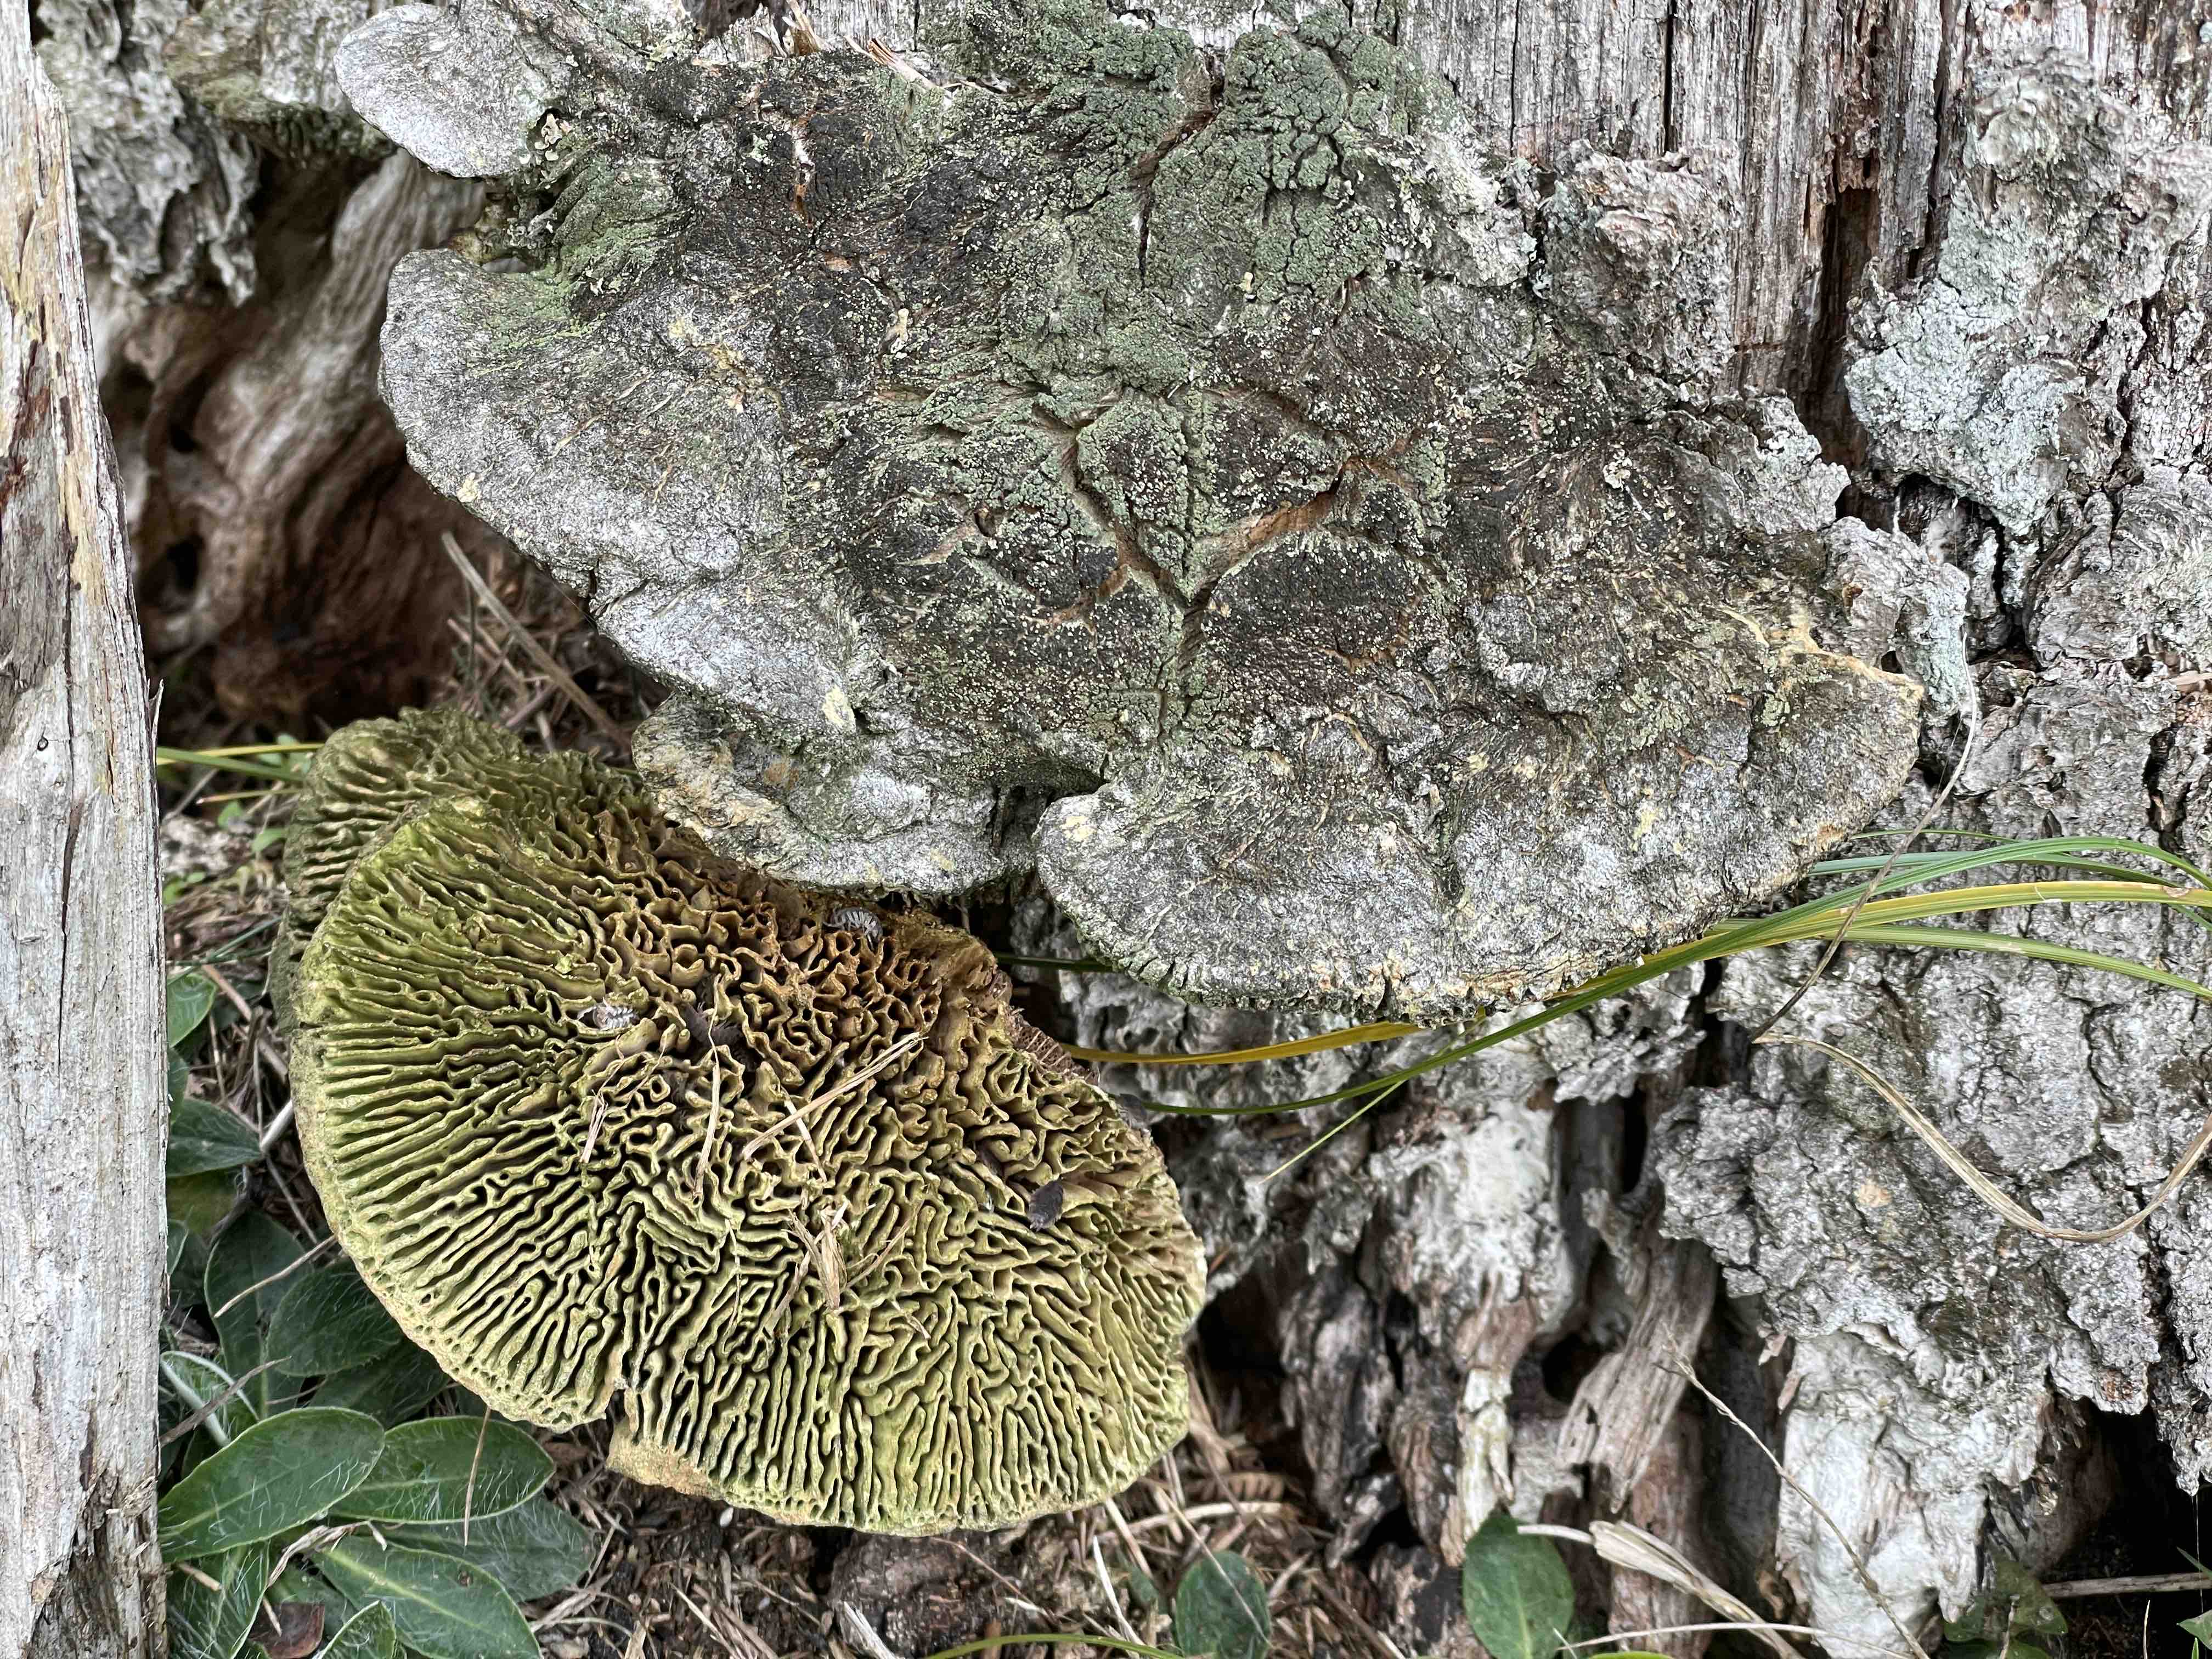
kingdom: Fungi
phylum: Basidiomycota
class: Agaricomycetes
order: Gloeophyllales
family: Gloeophyllaceae
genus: Gloeophyllum
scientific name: Gloeophyllum
